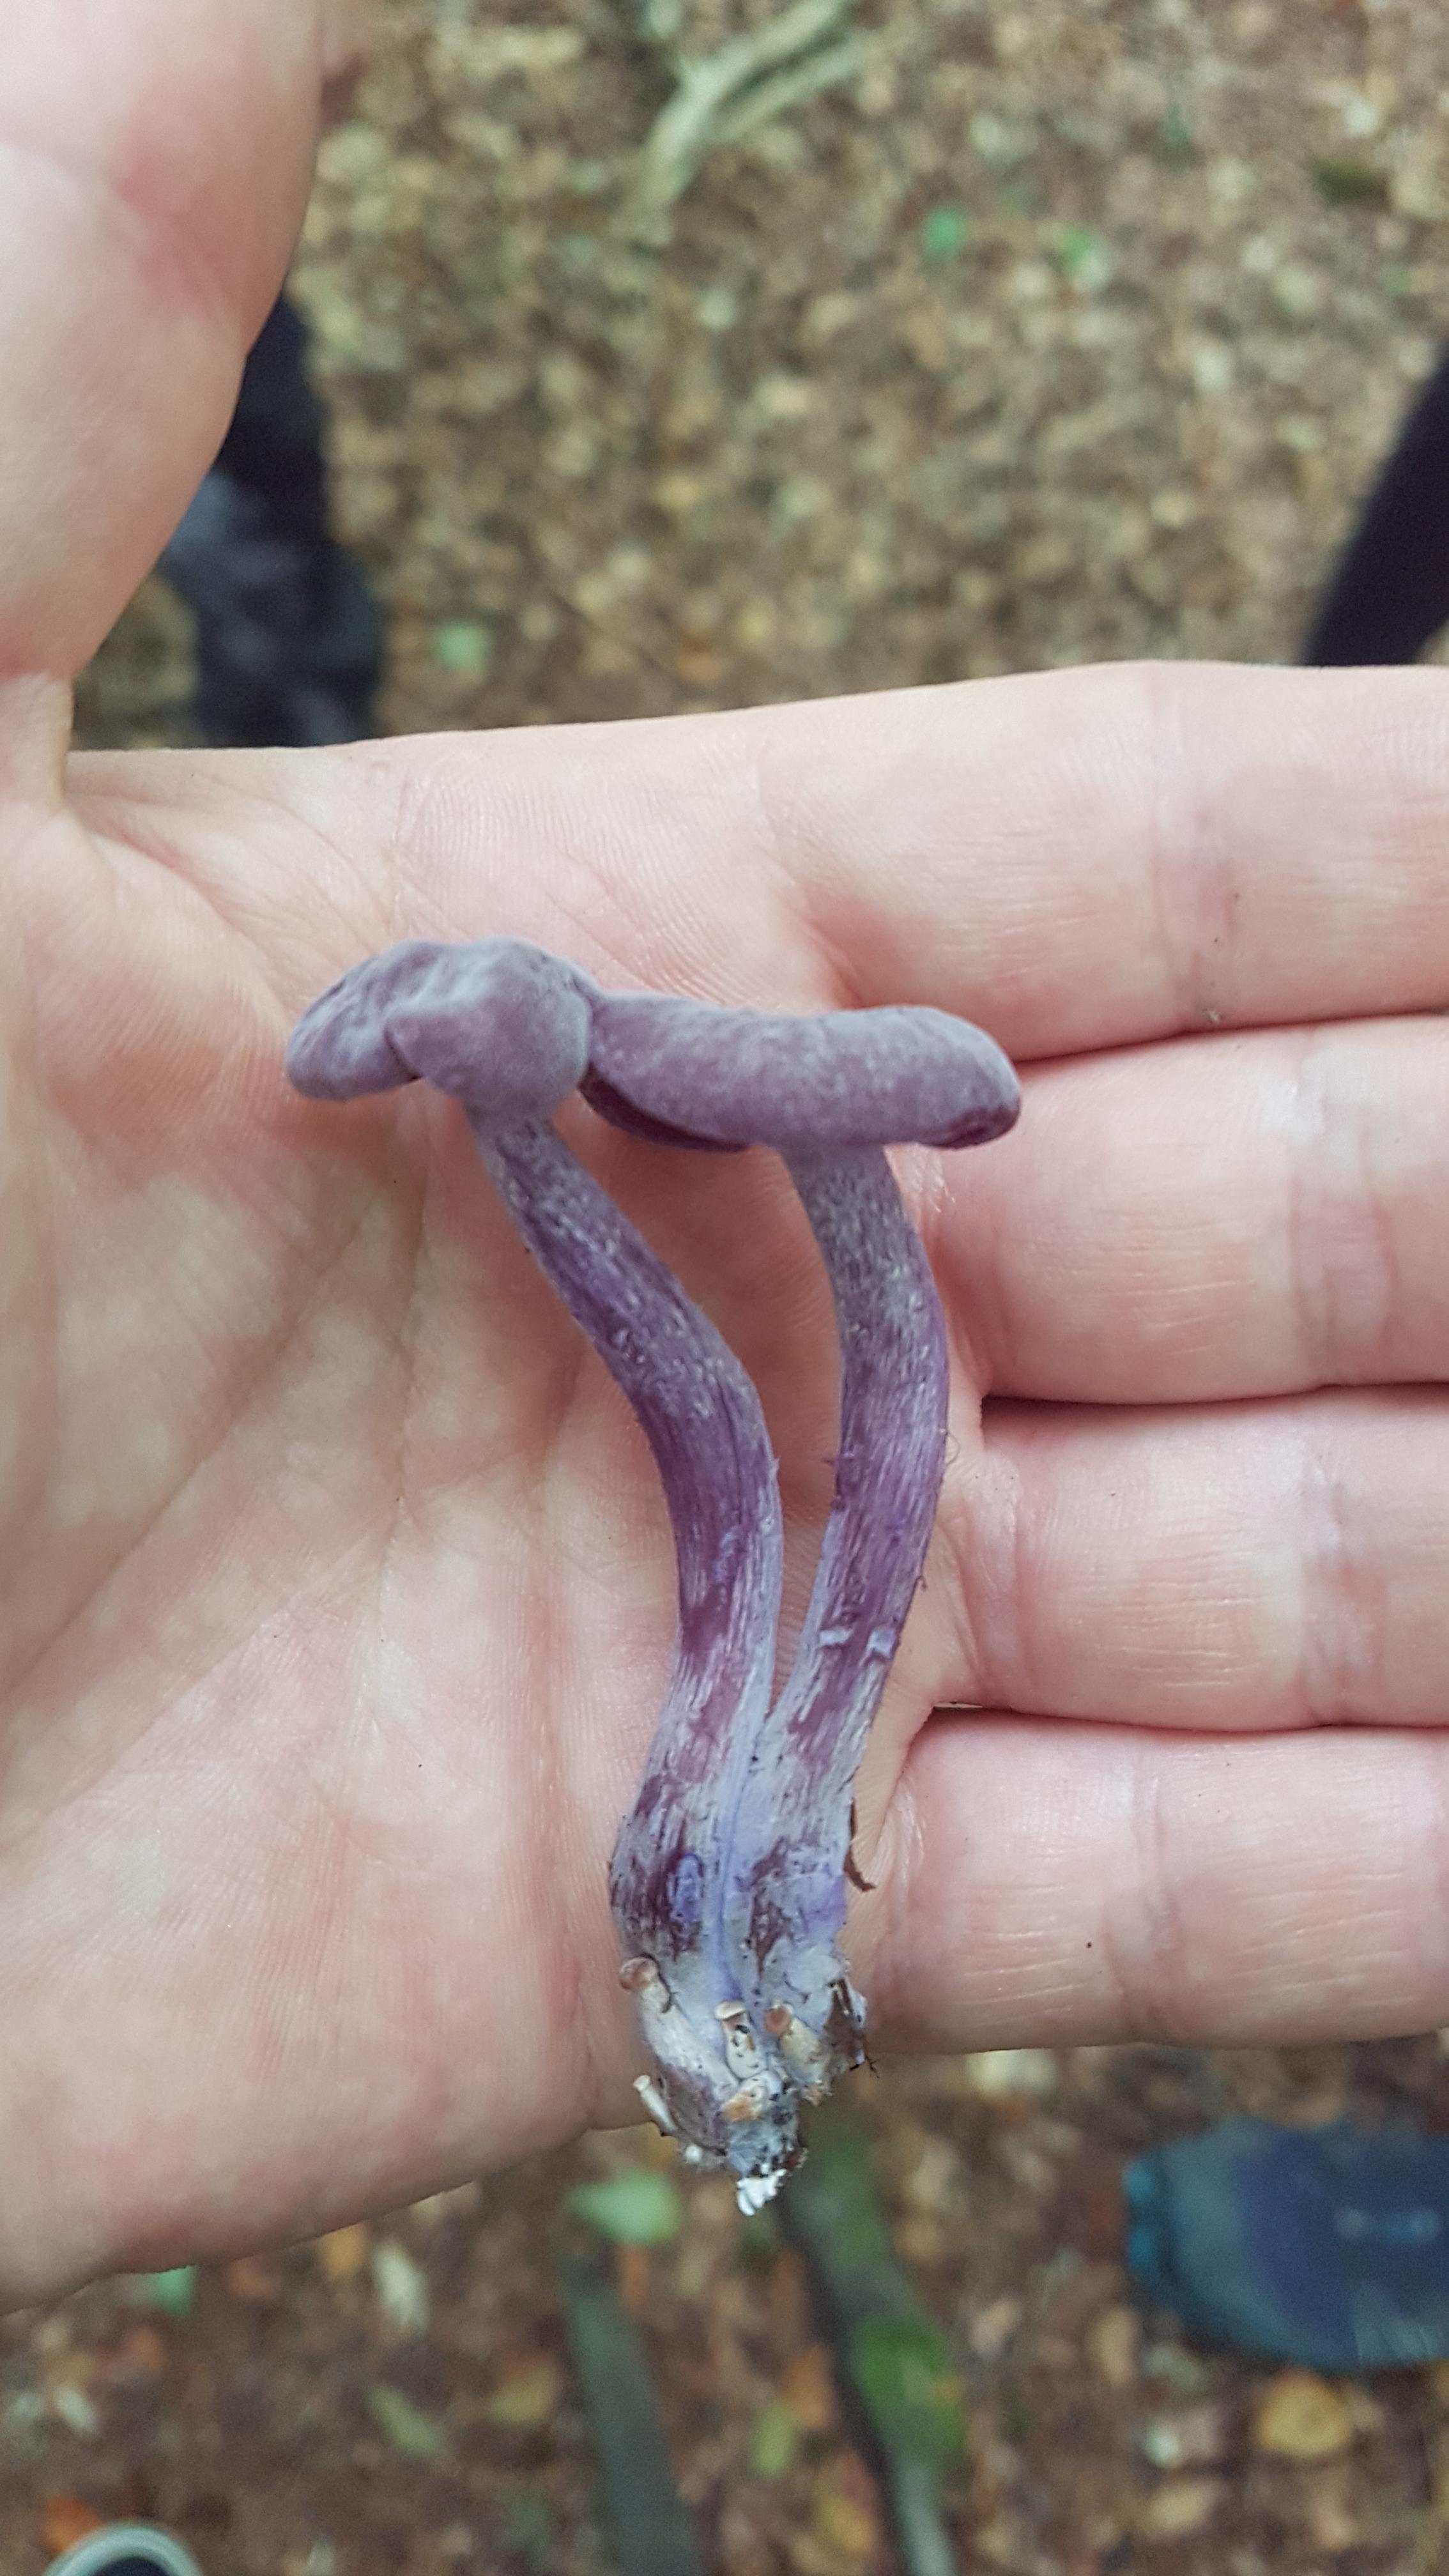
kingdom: Fungi
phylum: Basidiomycota
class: Agaricomycetes
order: Agaricales
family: Hydnangiaceae
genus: Laccaria
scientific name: Laccaria amethystina
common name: violet ametysthat
